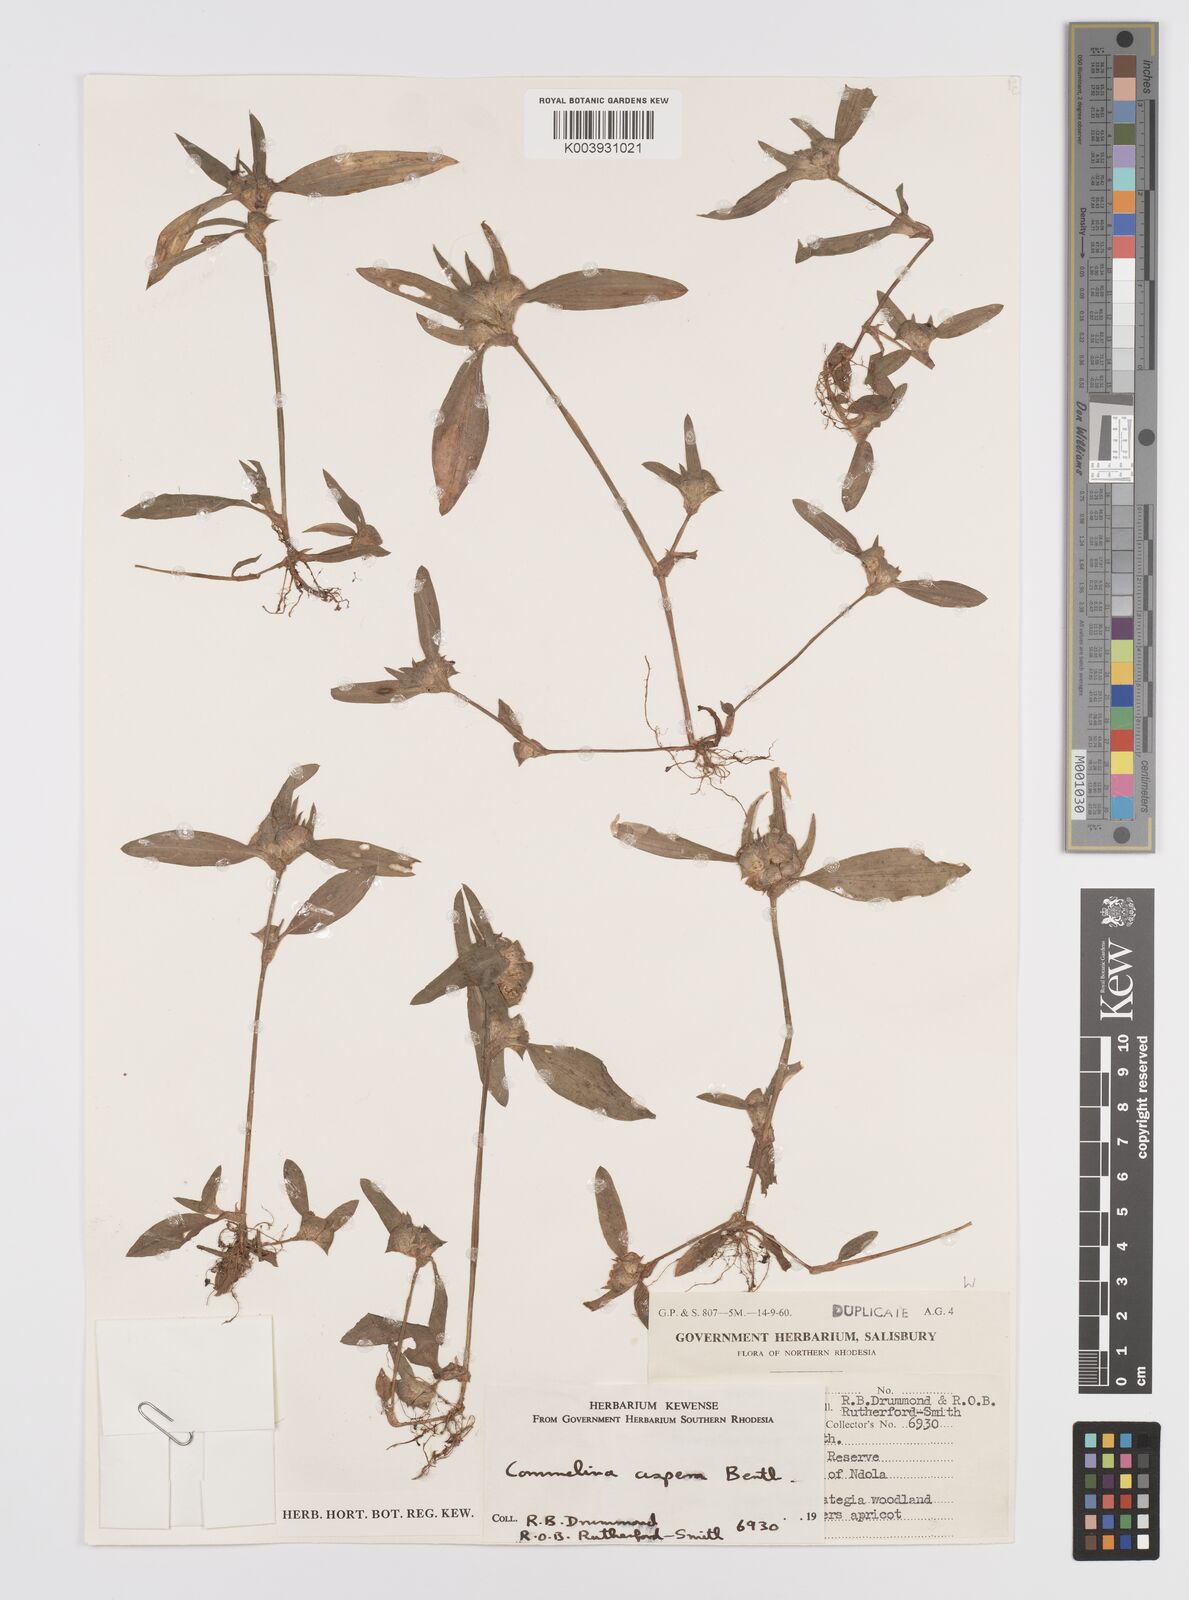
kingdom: Plantae
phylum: Tracheophyta
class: Liliopsida
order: Commelinales
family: Commelinaceae
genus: Commelina
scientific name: Commelina aspera
